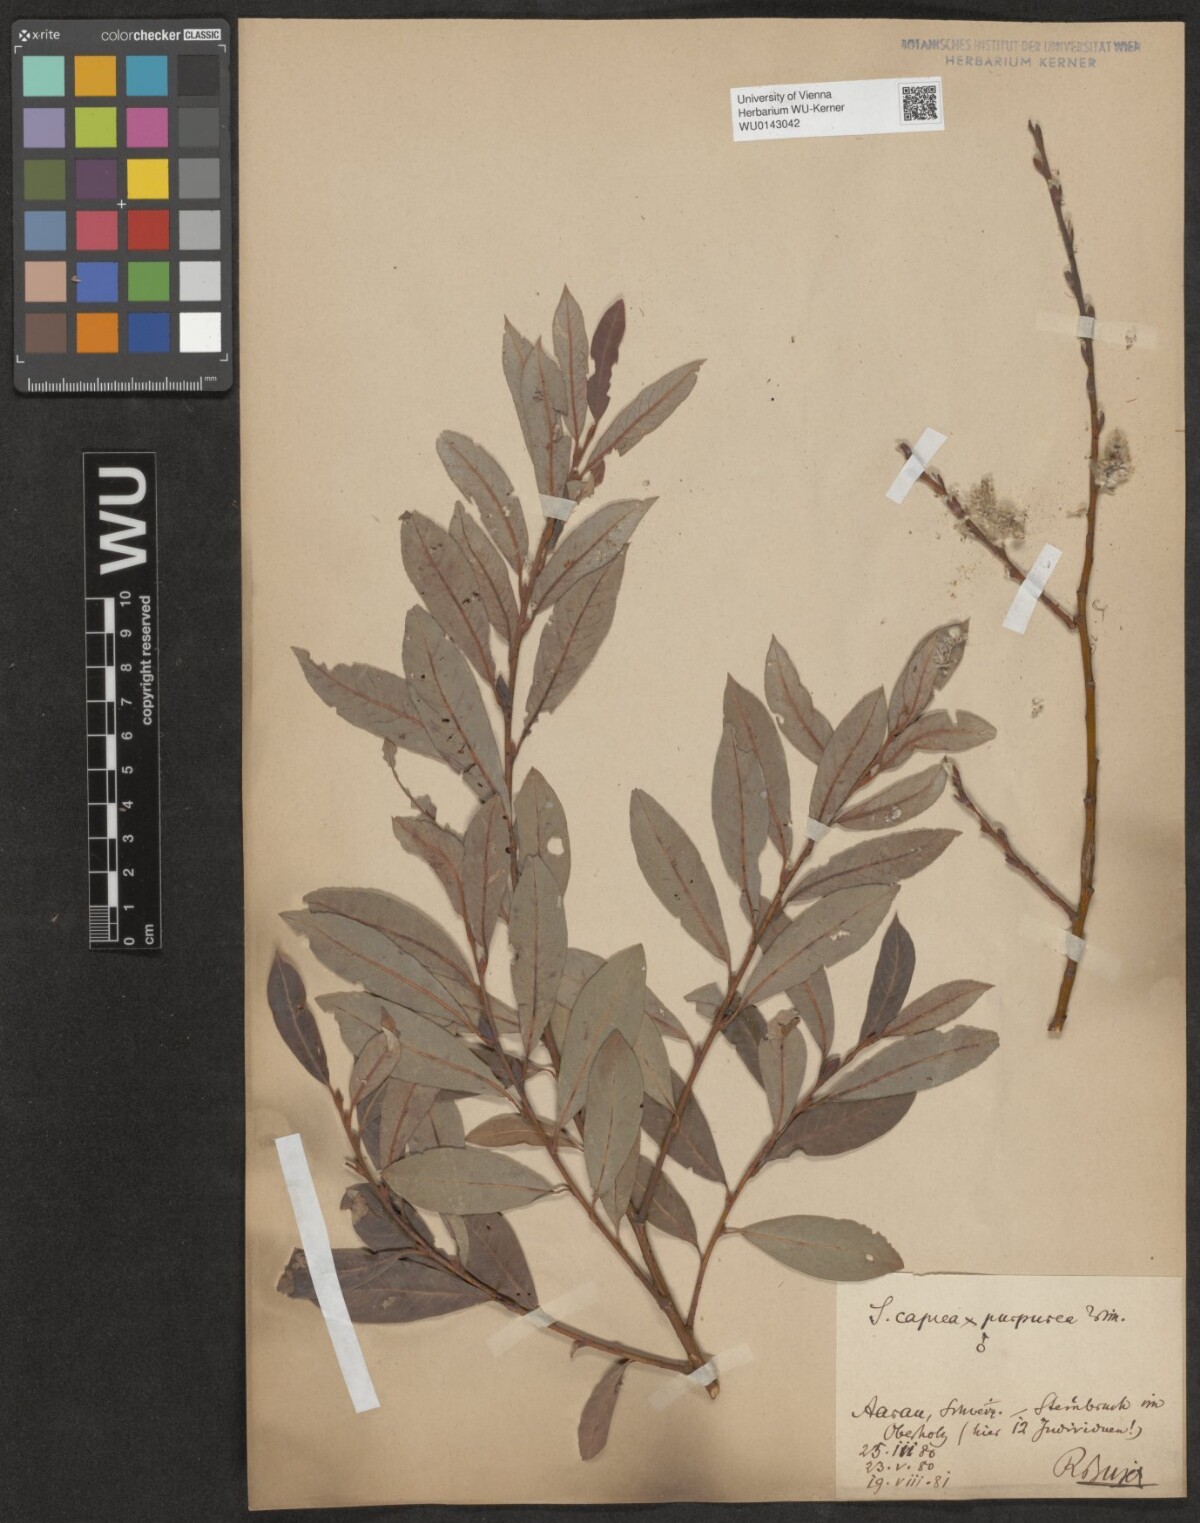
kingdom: Plantae
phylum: Tracheophyta
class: Magnoliopsida
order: Malpighiales
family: Salicaceae
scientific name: Salicaceae
